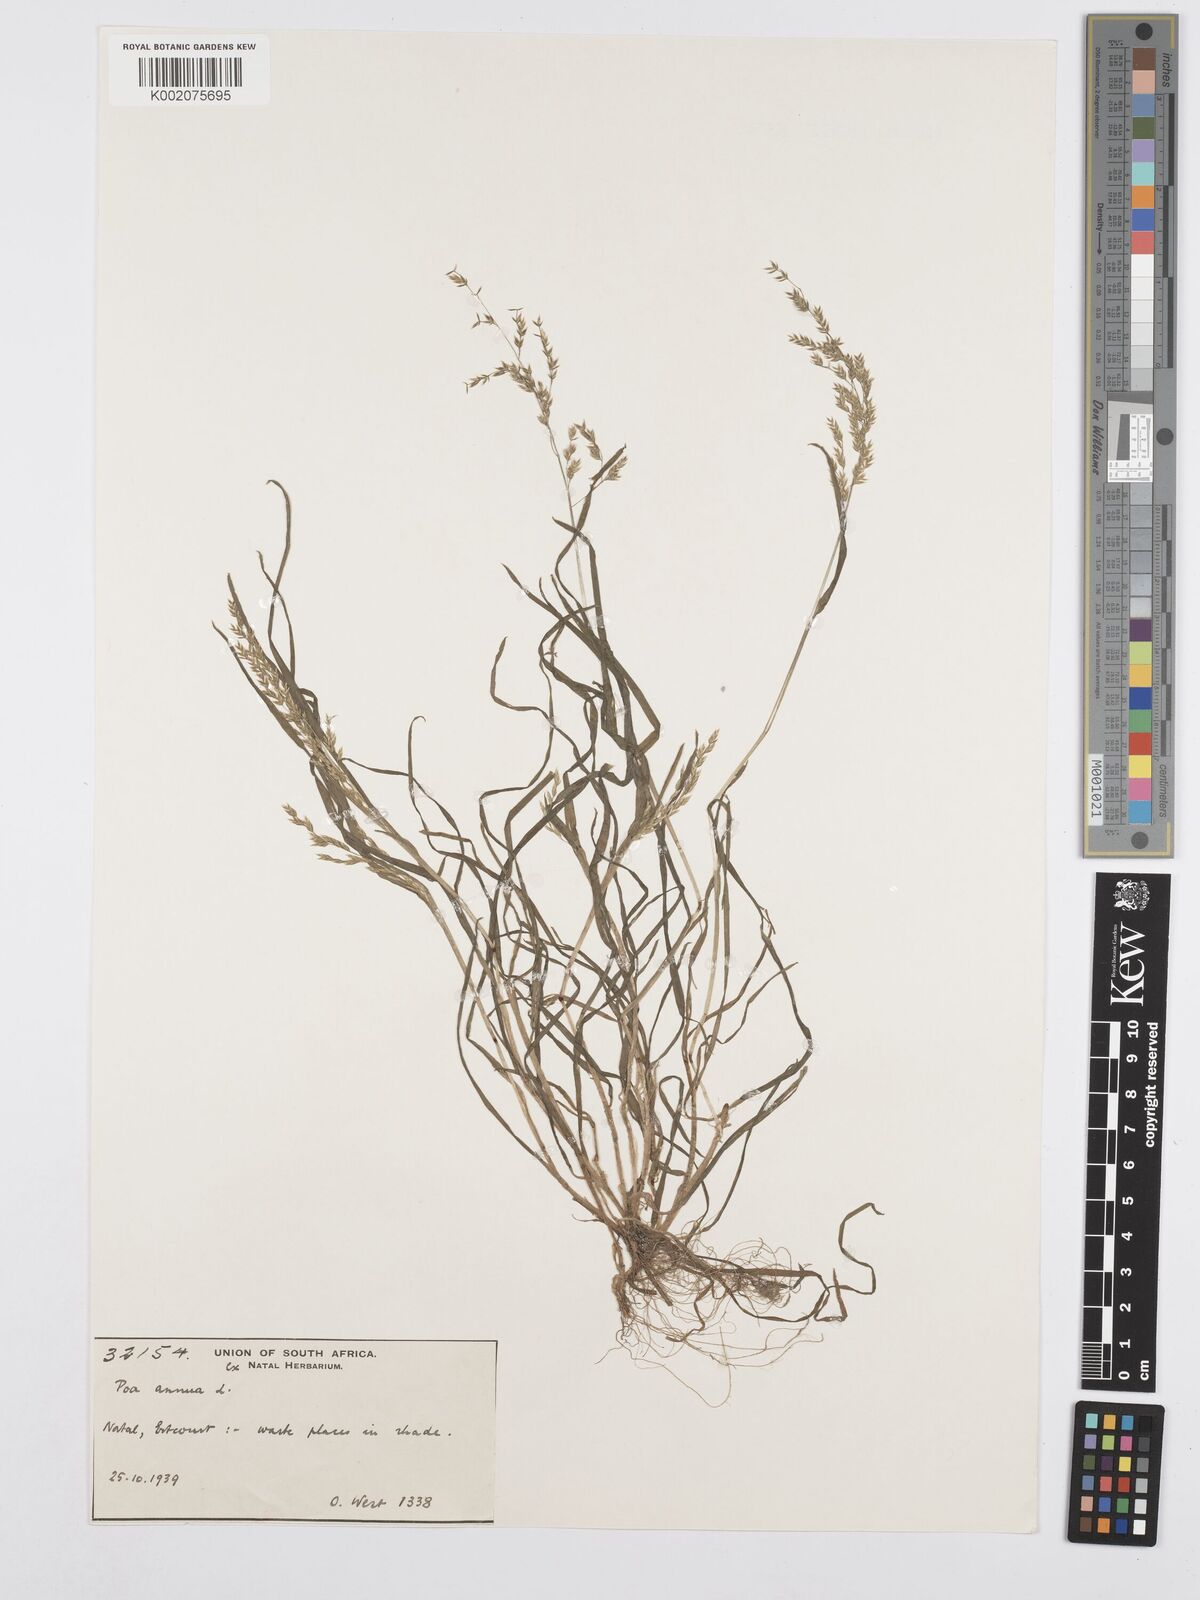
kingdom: Plantae
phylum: Tracheophyta
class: Liliopsida
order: Poales
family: Poaceae
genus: Poa
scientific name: Poa annua
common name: Annual bluegrass
